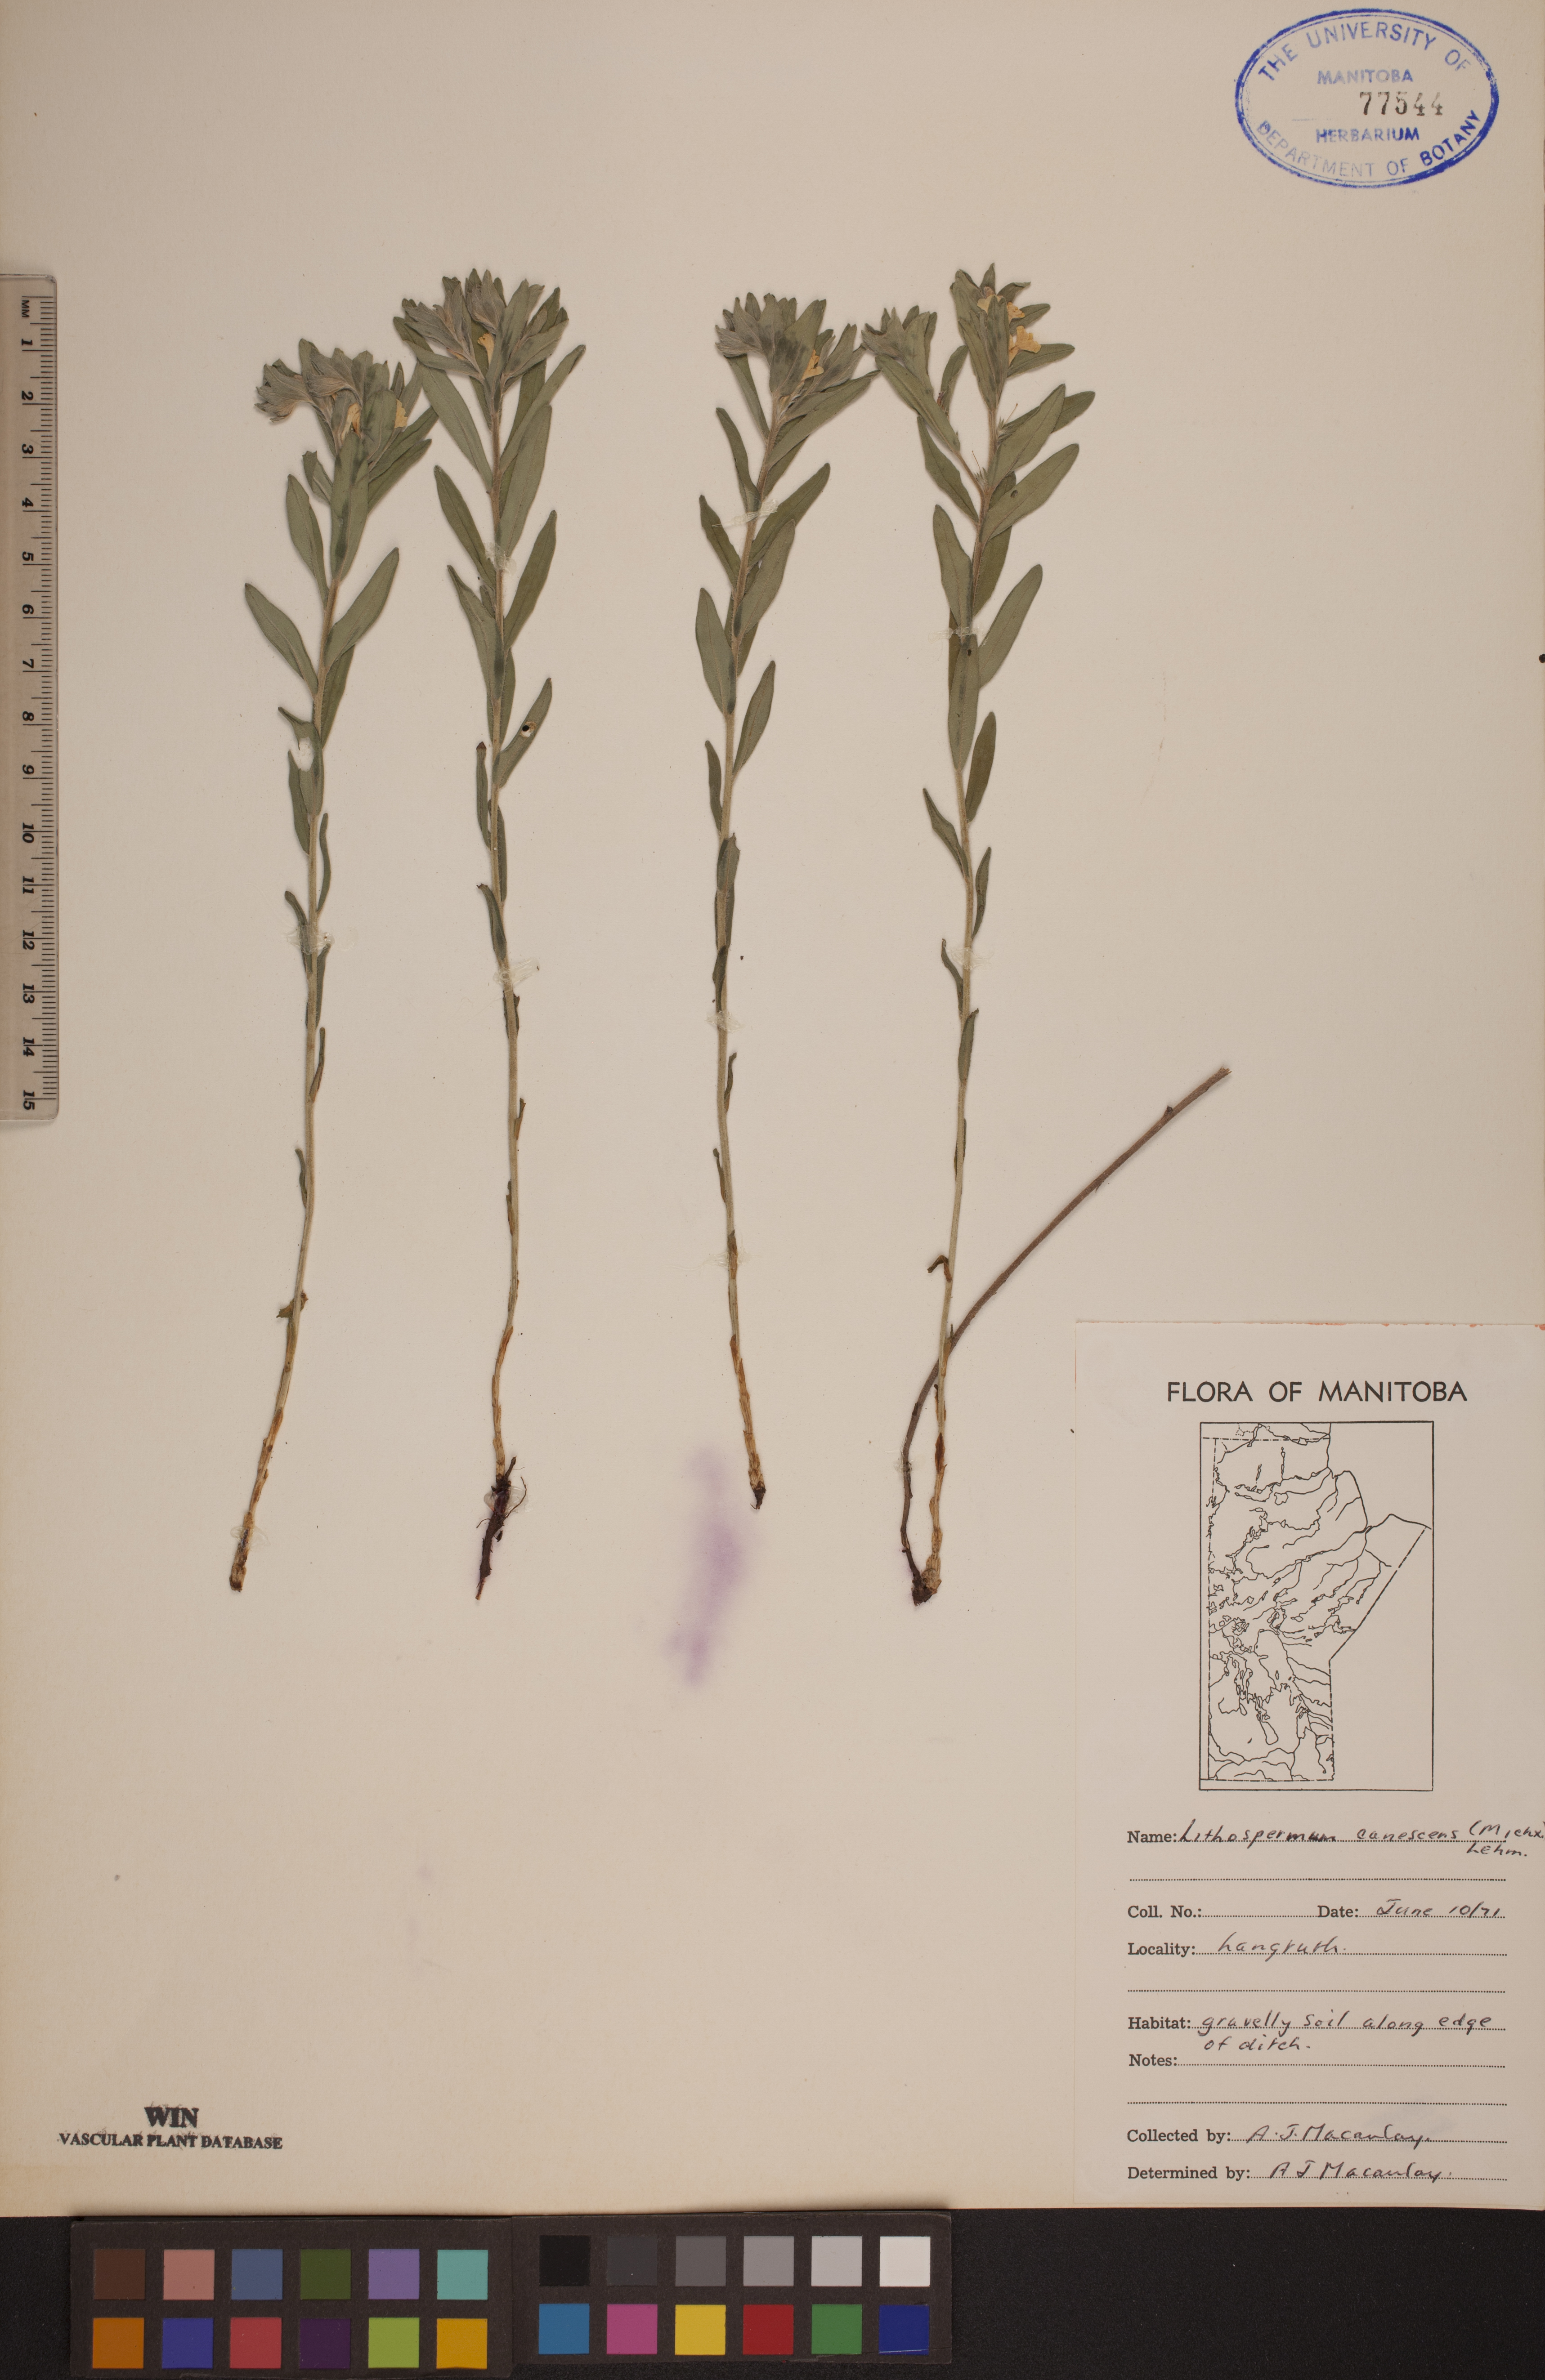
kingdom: Plantae
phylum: Tracheophyta
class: Magnoliopsida
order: Boraginales
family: Boraginaceae
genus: Lithospermum
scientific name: Lithospermum canescens
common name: Hoary puccoon
